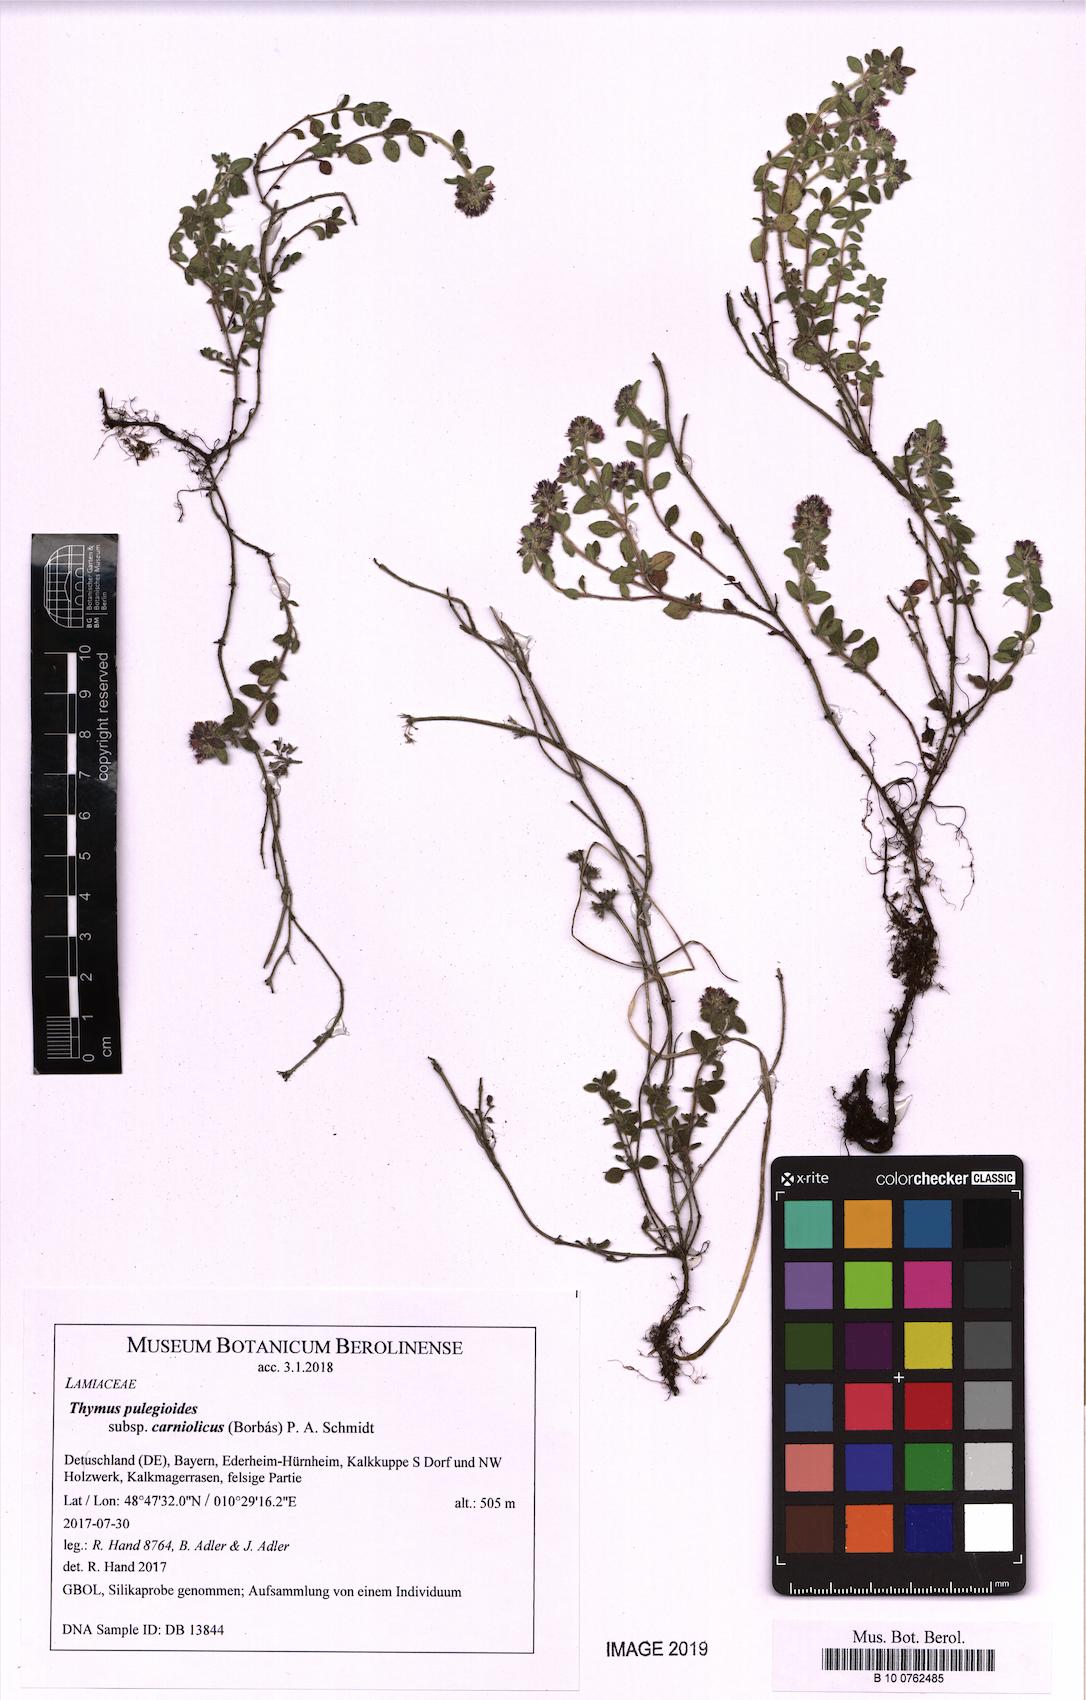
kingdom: Plantae
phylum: Tracheophyta
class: Magnoliopsida
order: Lamiales
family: Lamiaceae
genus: Thymus
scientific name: Thymus pannonicus
